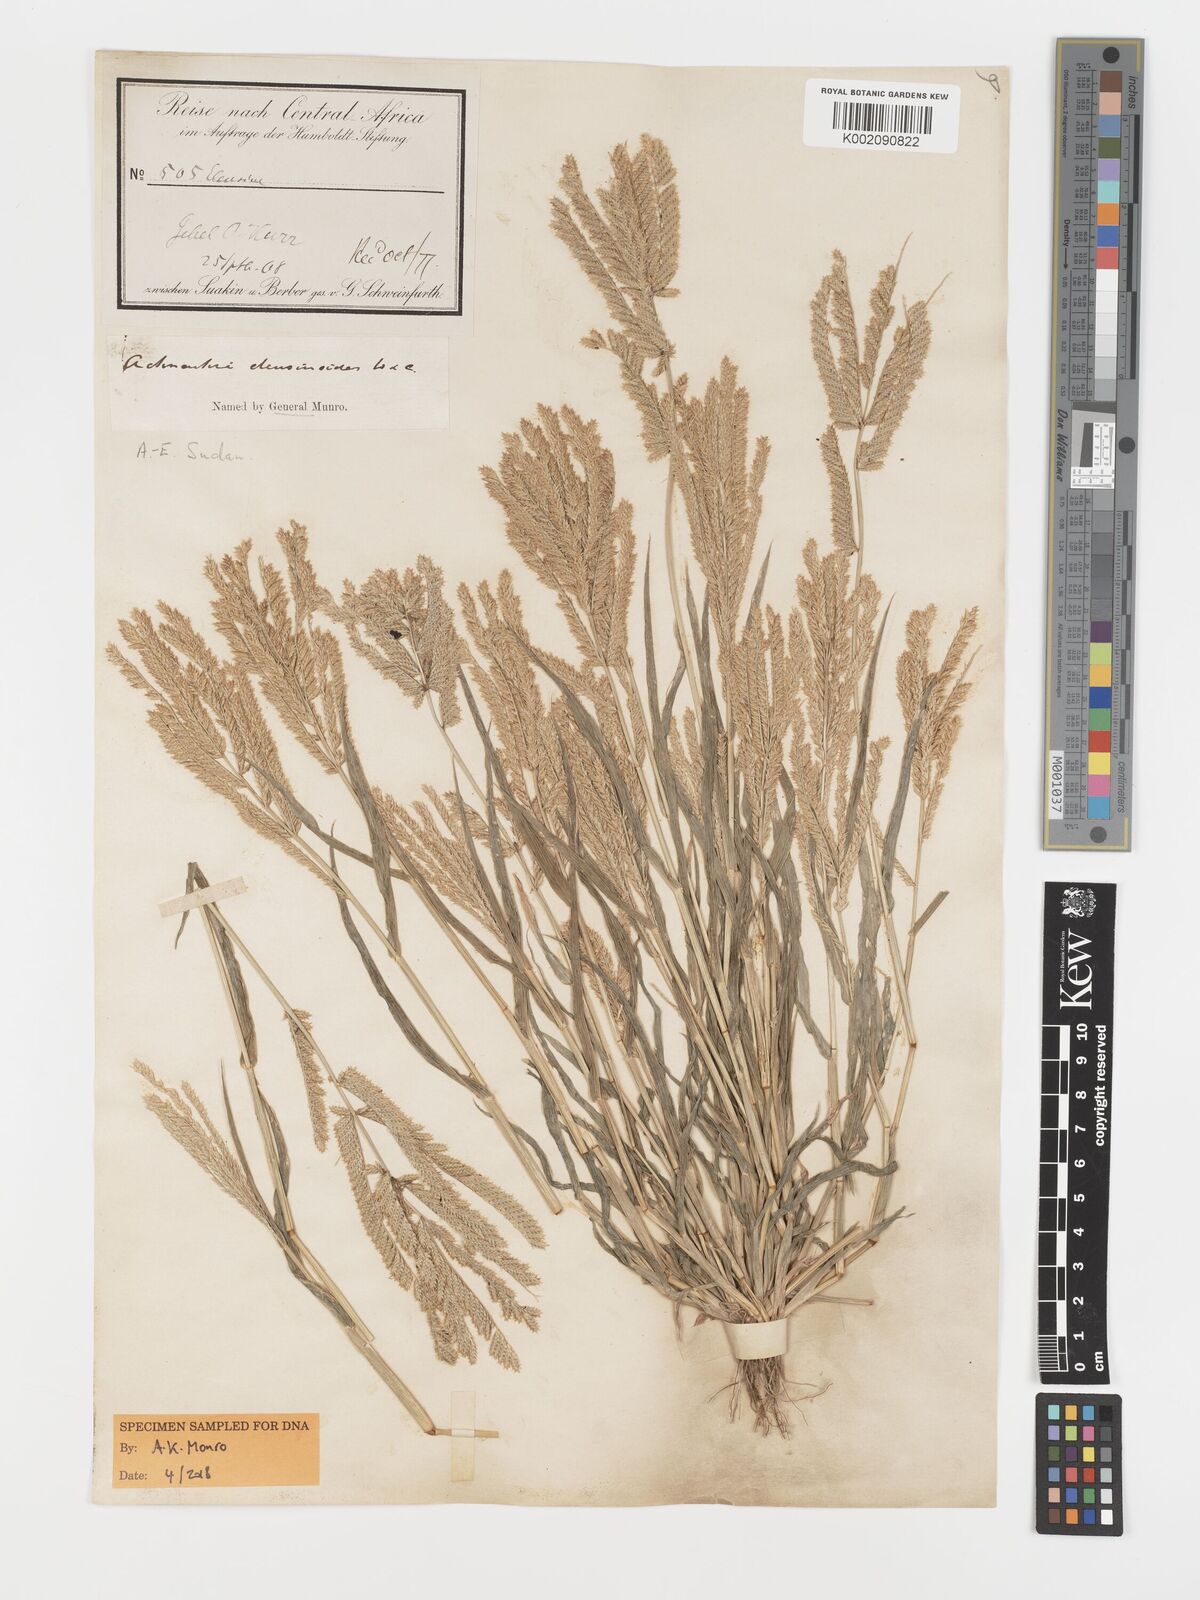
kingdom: Plantae
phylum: Tracheophyta
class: Liliopsida
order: Poales
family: Poaceae
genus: Acrachne
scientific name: Acrachne racemosa
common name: Goosegrass
